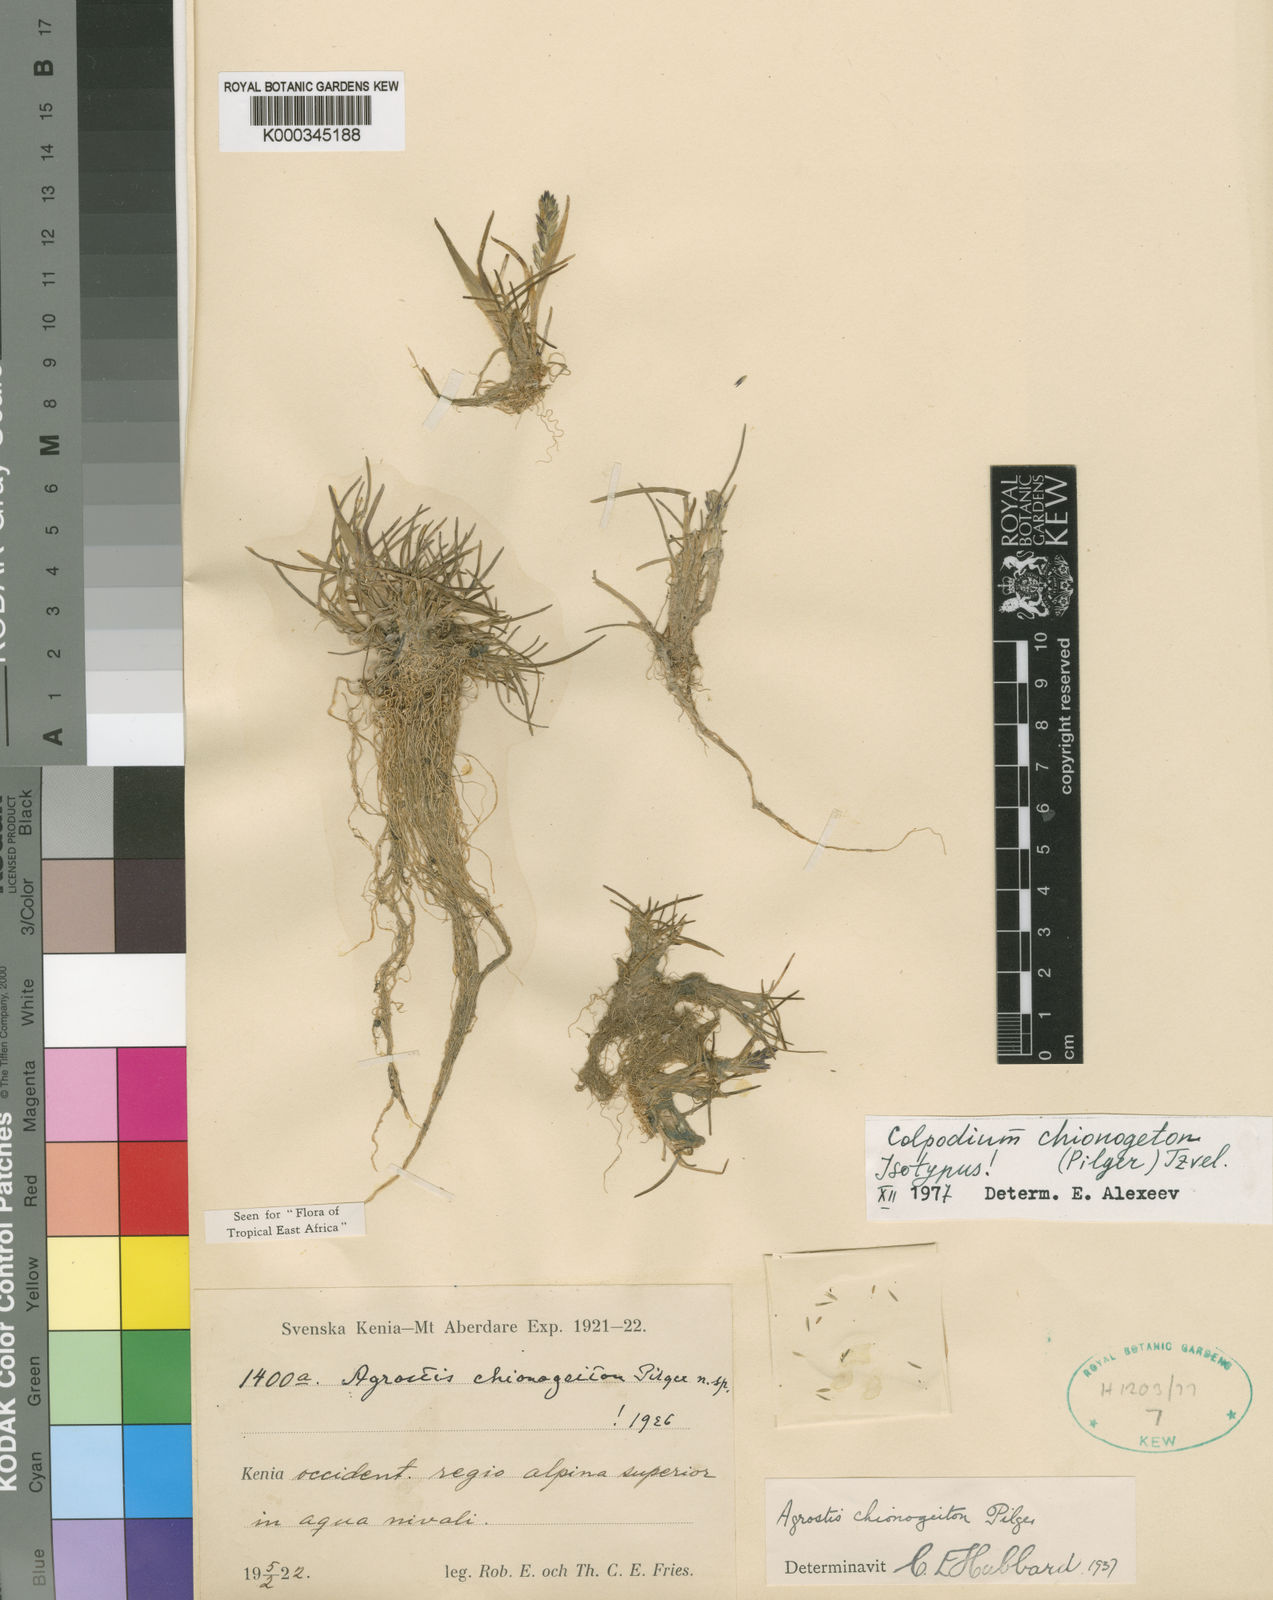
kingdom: Plantae
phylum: Tracheophyta
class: Liliopsida
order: Poales
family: Poaceae
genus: Colpodium
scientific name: Colpodium
